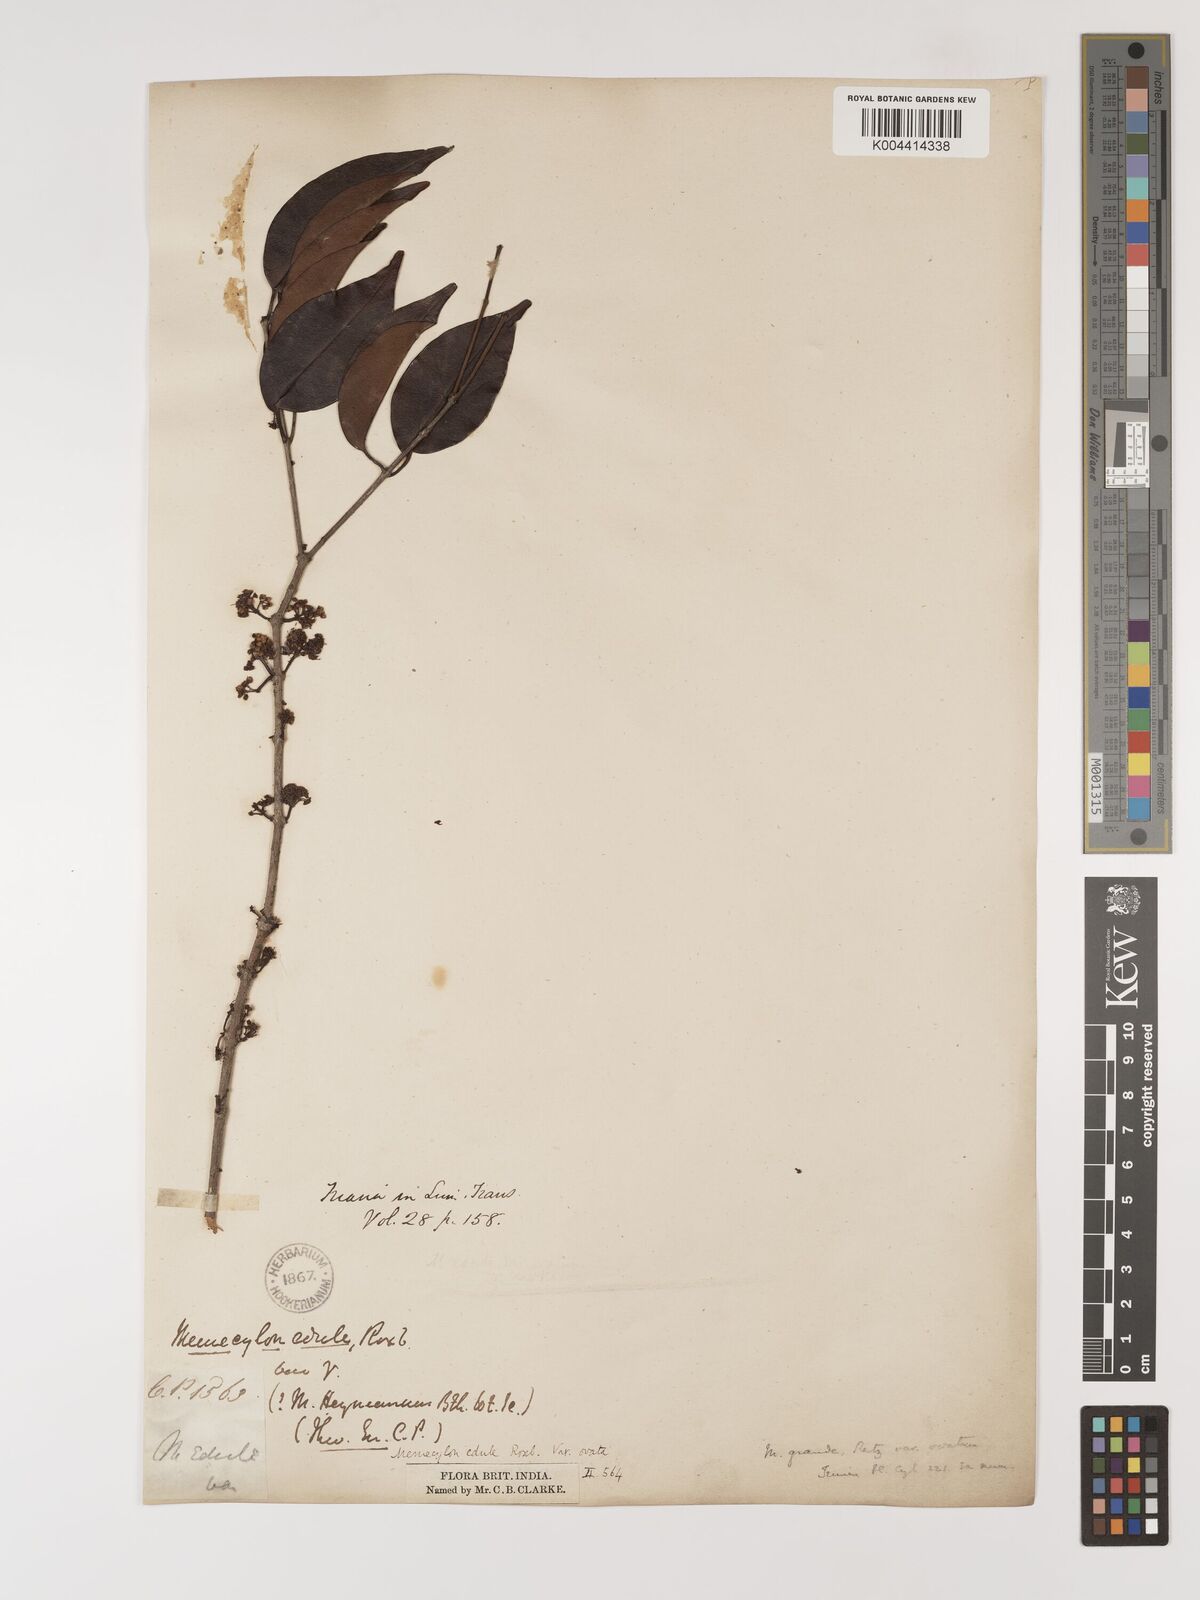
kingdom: Plantae
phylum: Tracheophyta
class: Magnoliopsida
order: Myrtales
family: Melastomataceae
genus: Memecylon
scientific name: Memecylon edule
